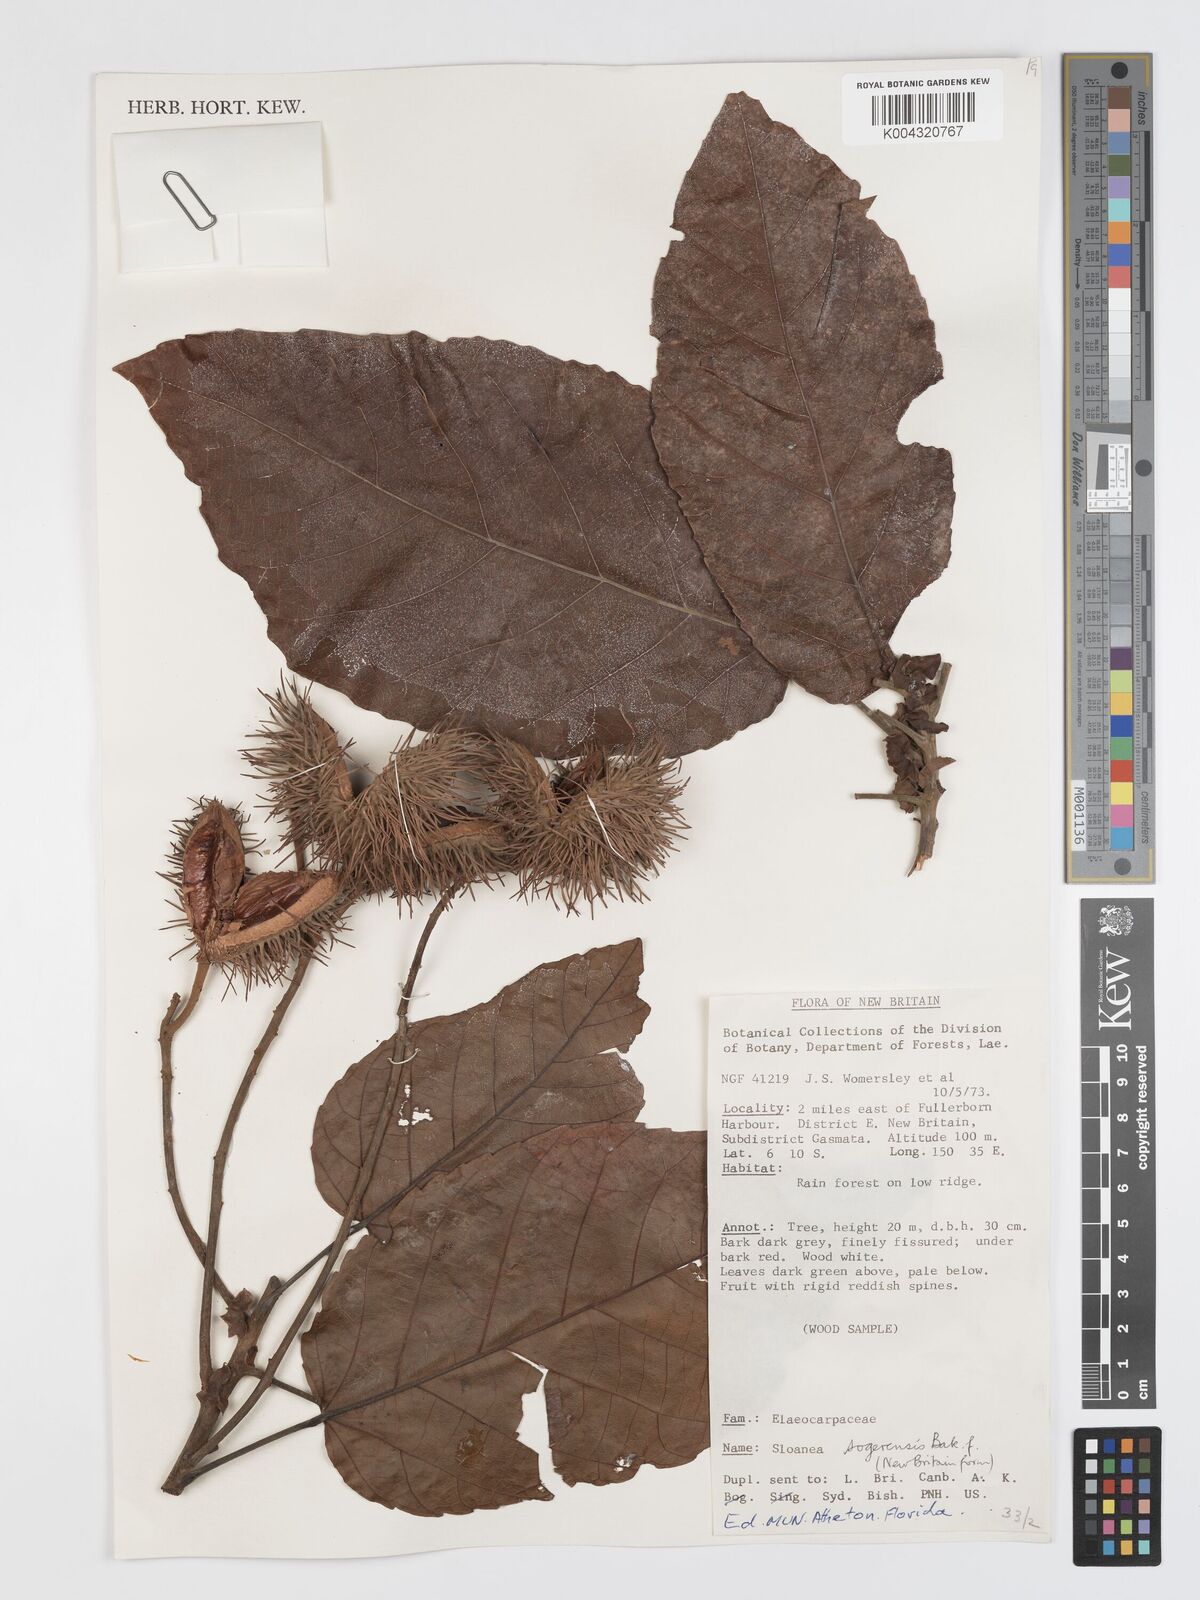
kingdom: Plantae
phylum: Tracheophyta
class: Magnoliopsida
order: Oxalidales
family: Elaeocarpaceae
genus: Sloanea
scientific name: Sloanea sogerensis
